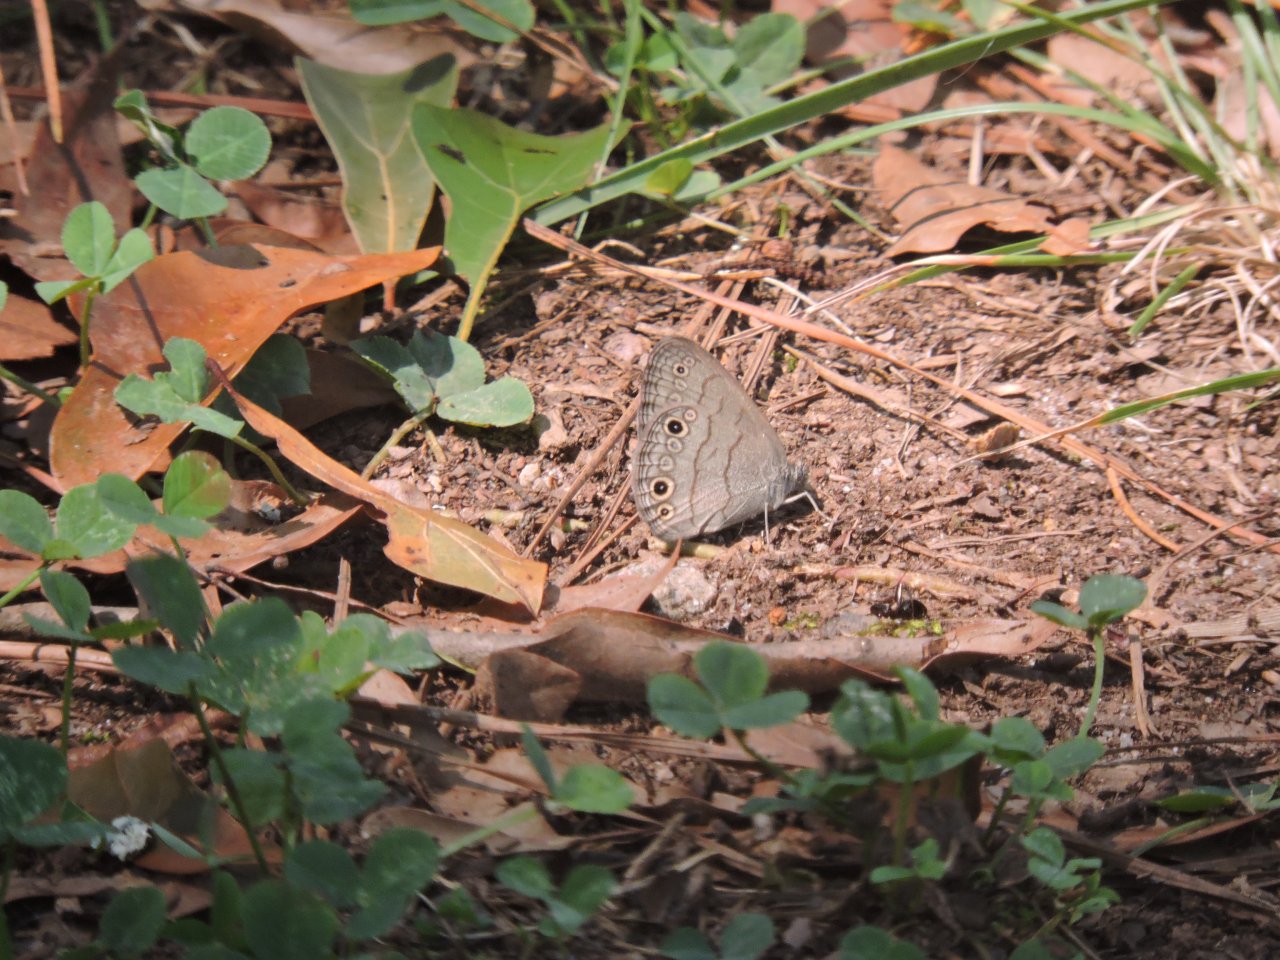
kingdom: Animalia
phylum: Arthropoda
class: Insecta
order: Lepidoptera
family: Nymphalidae
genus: Hermeuptychia
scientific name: Hermeuptychia hermes
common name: Carolina Satyr
